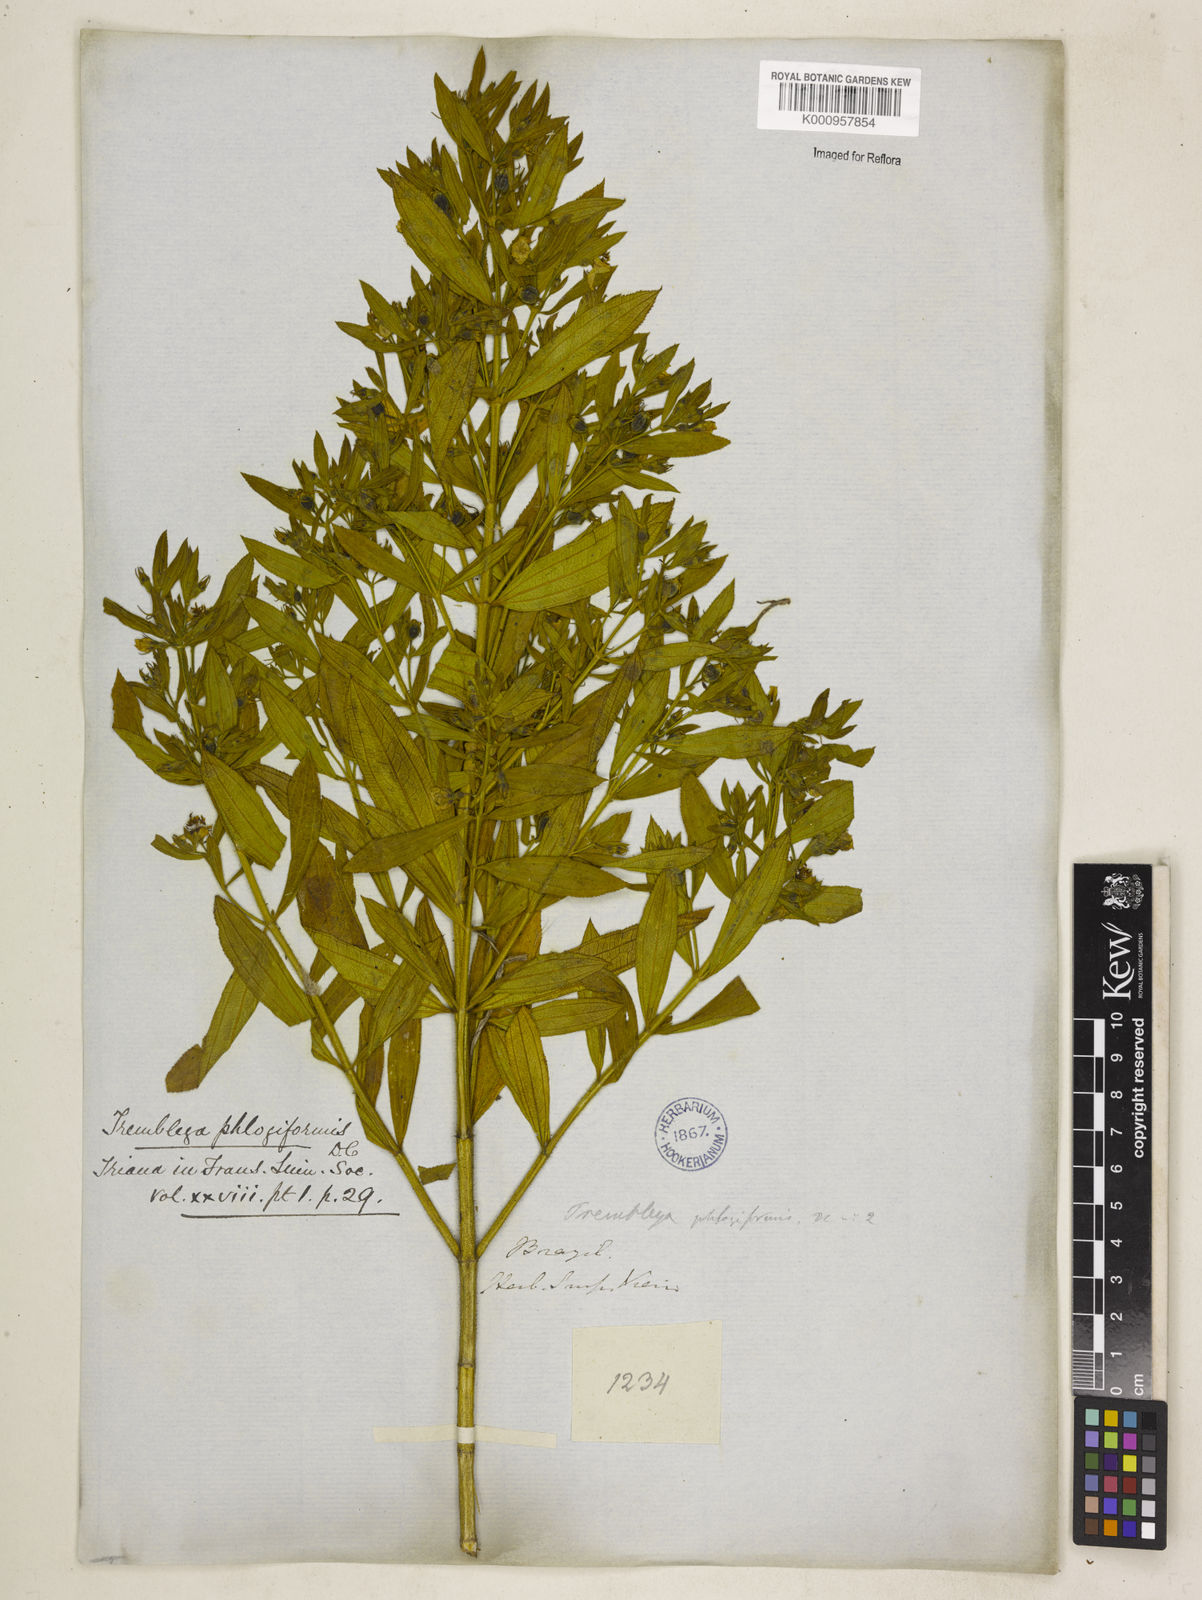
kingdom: Plantae
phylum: Tracheophyta
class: Magnoliopsida
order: Myrtales
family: Melastomataceae
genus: Microlicia
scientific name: Microlicia phlogiformis
